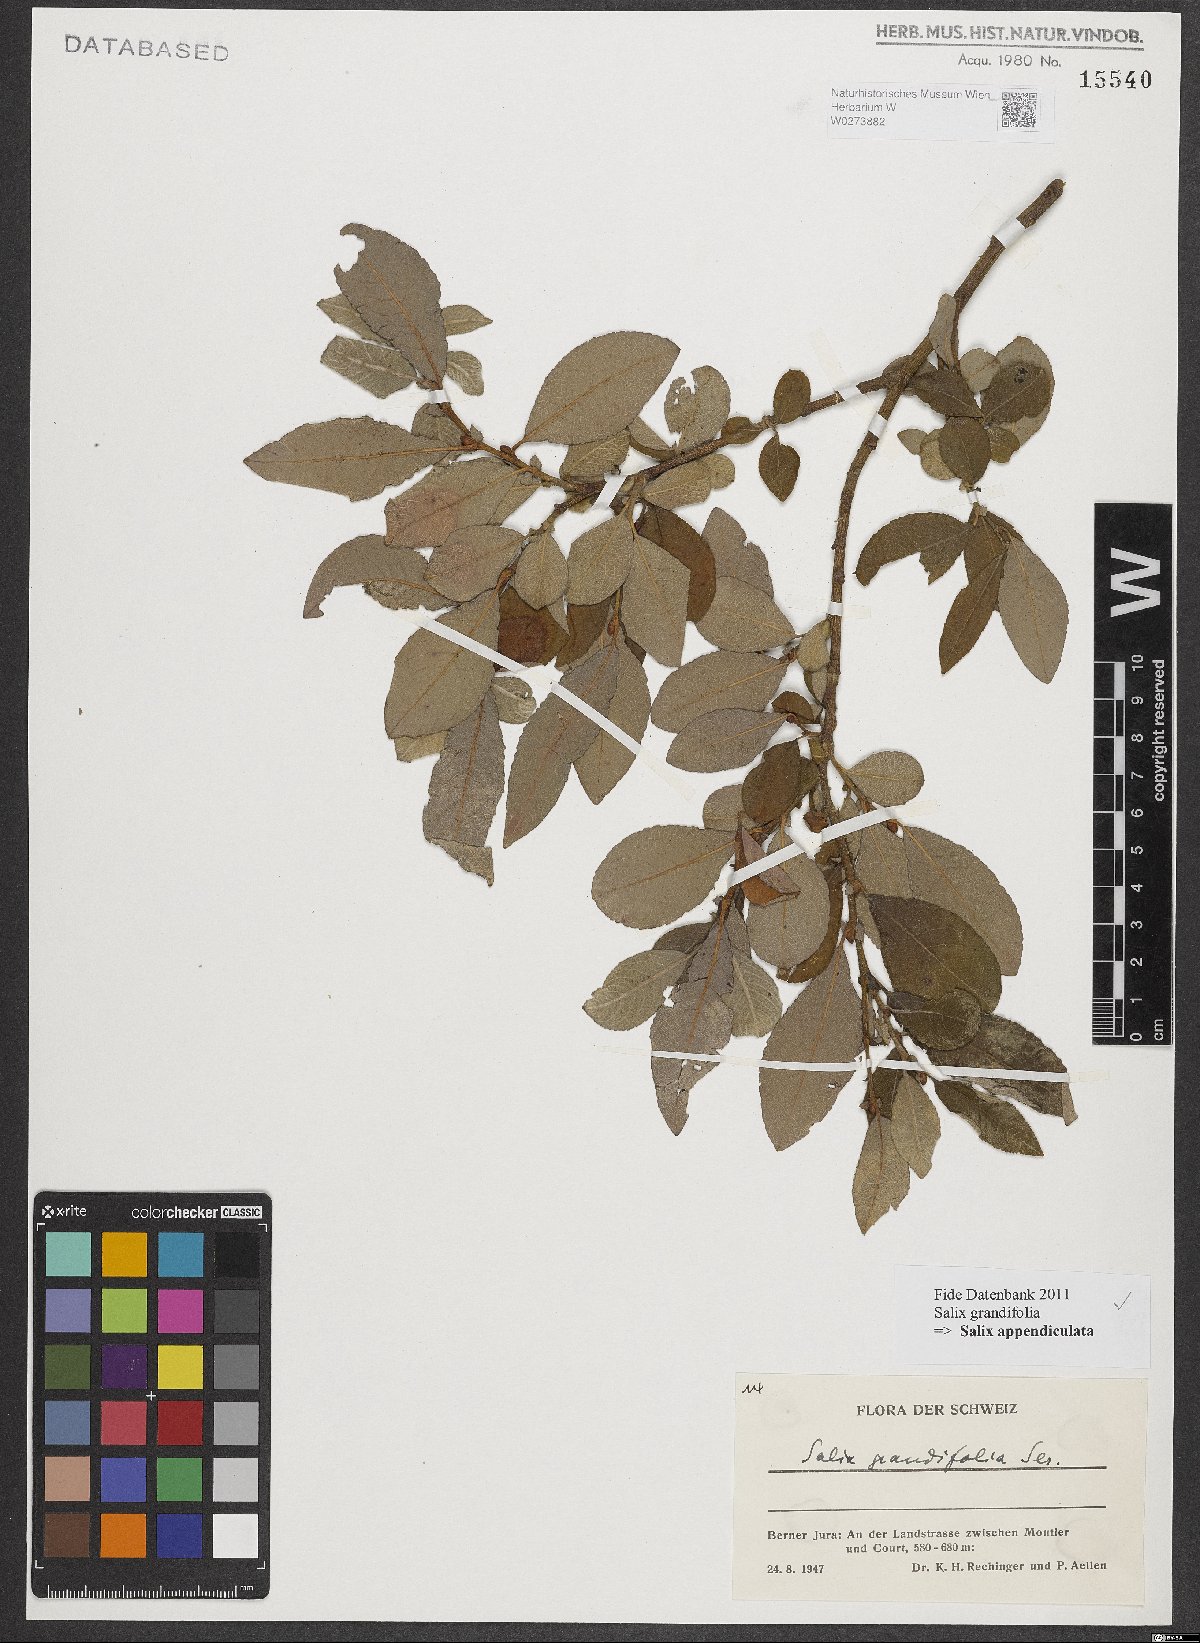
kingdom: Plantae
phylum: Tracheophyta
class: Magnoliopsida
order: Malpighiales
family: Salicaceae
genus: Salix
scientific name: Salix appendiculata
